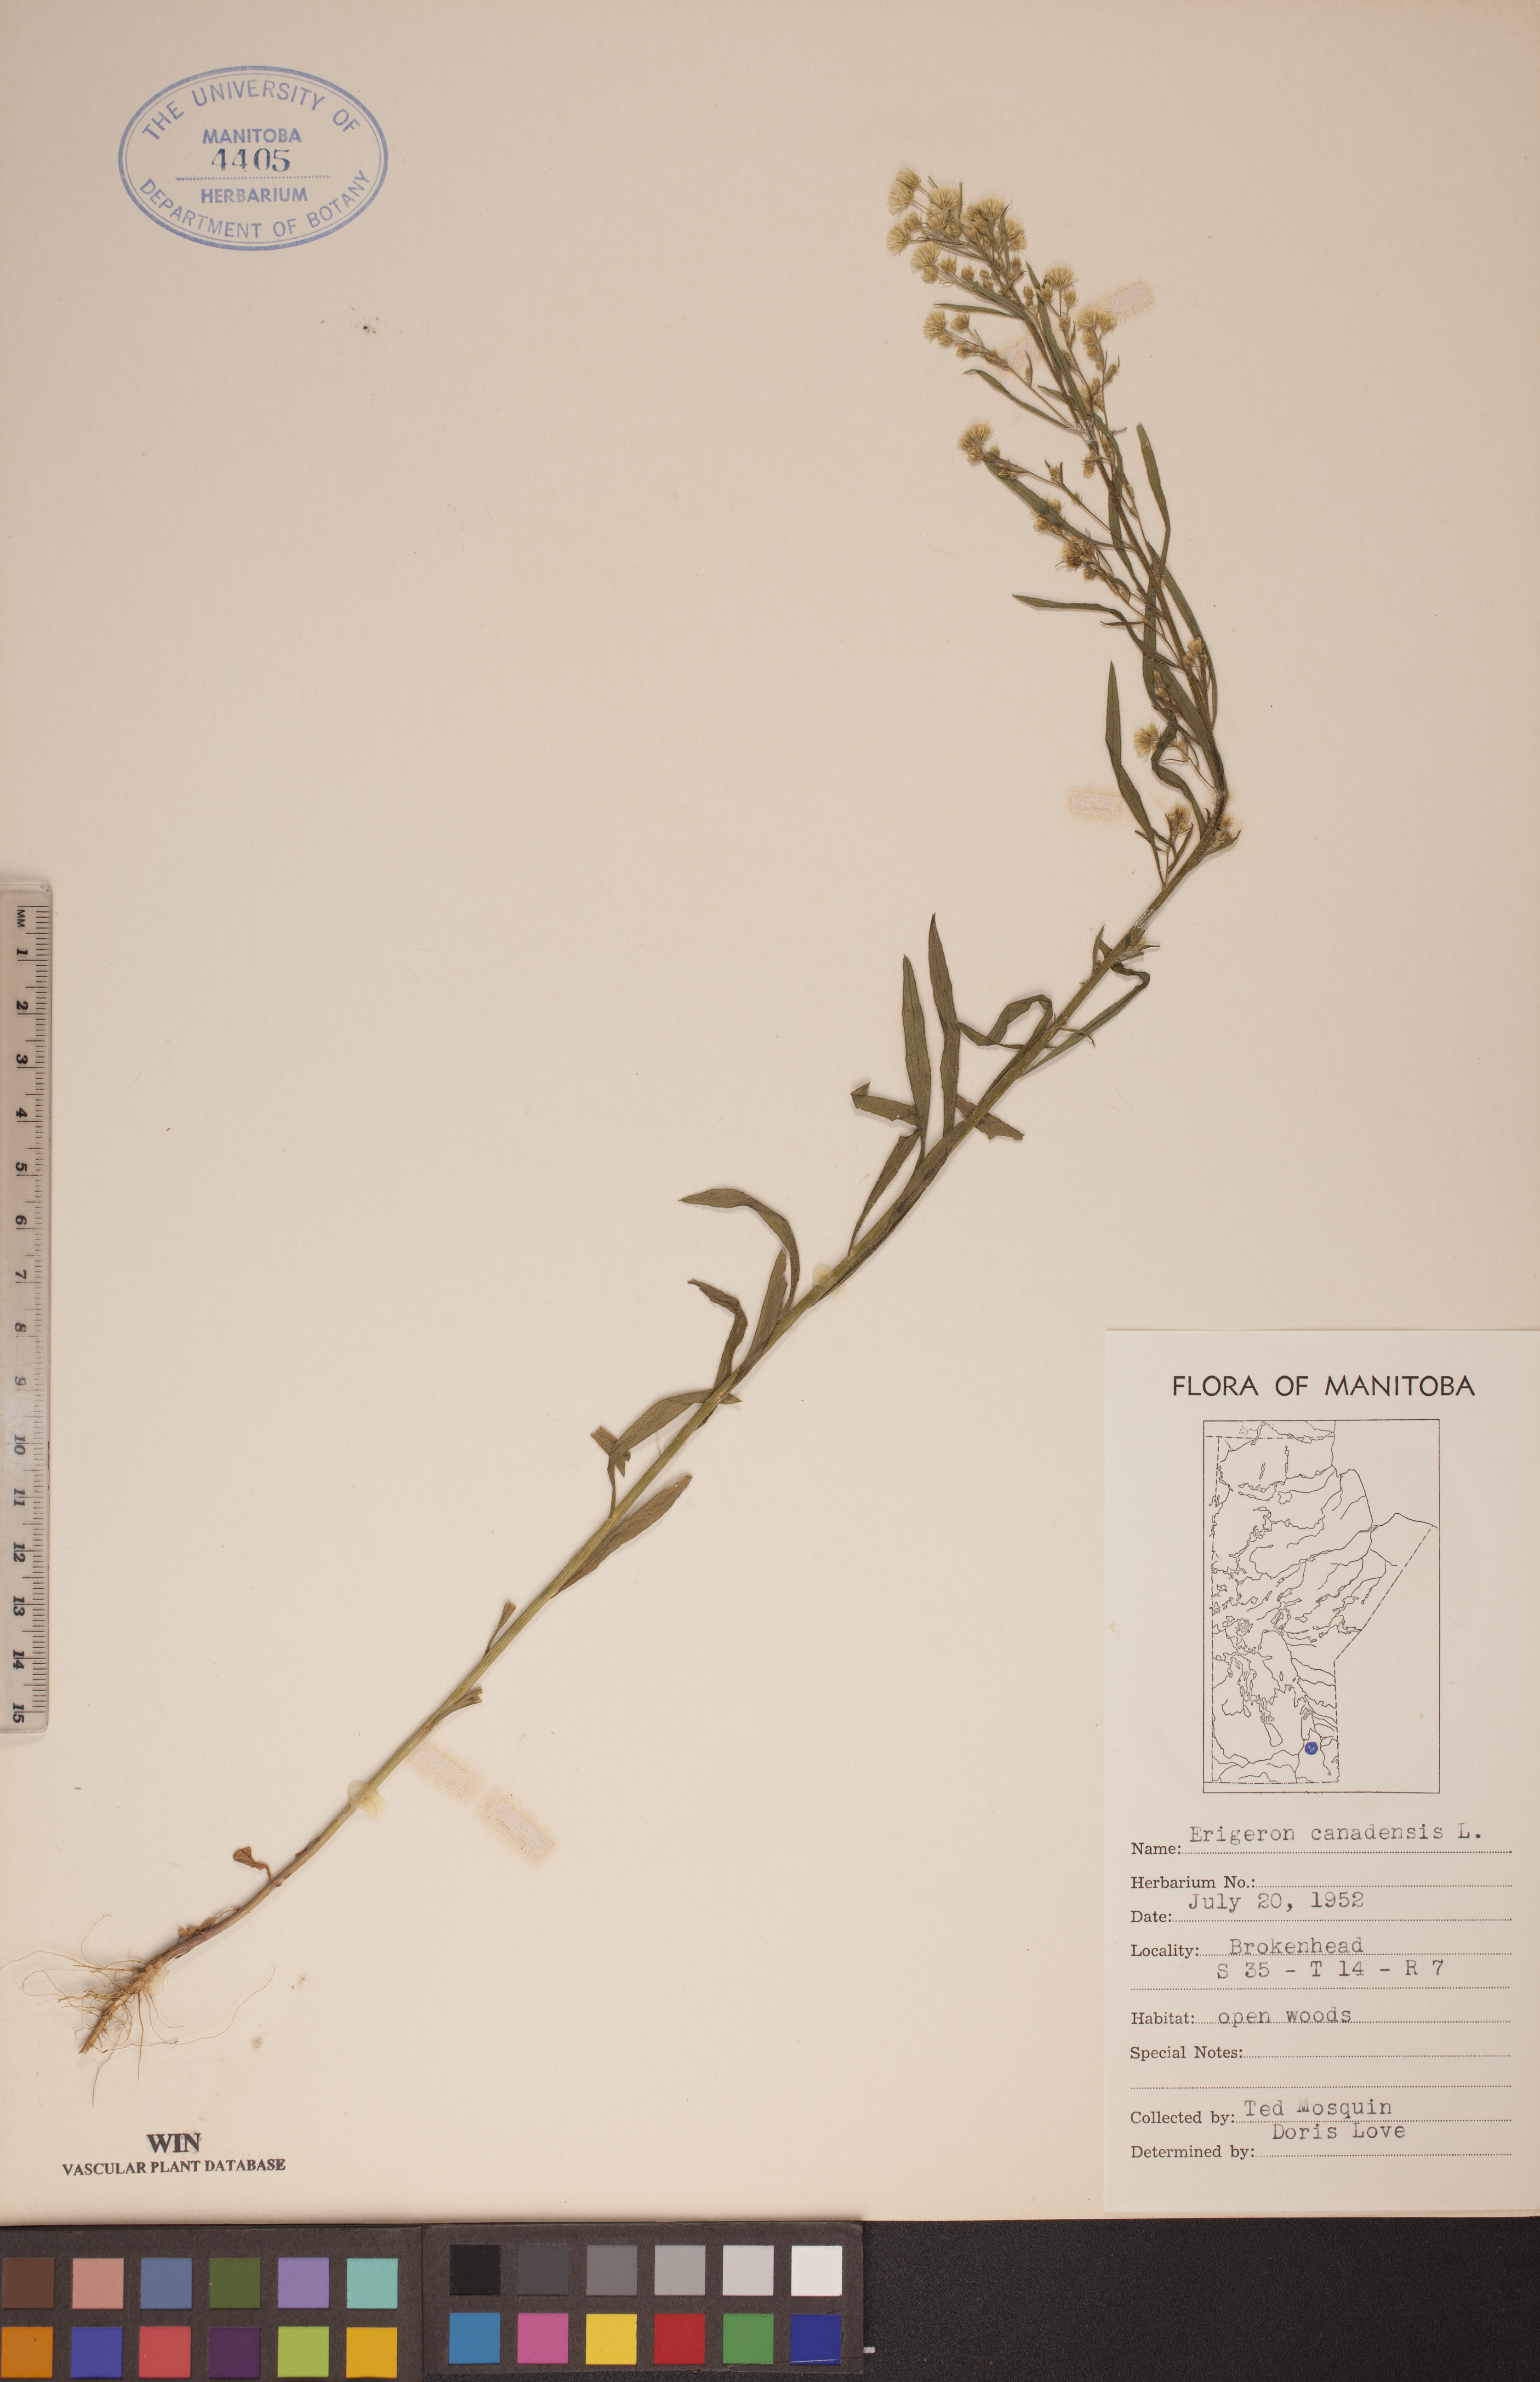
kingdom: Plantae
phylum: Tracheophyta
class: Magnoliopsida
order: Asterales
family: Asteraceae
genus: Erigeron
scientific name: Erigeron canadensis
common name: Canadian fleabane
